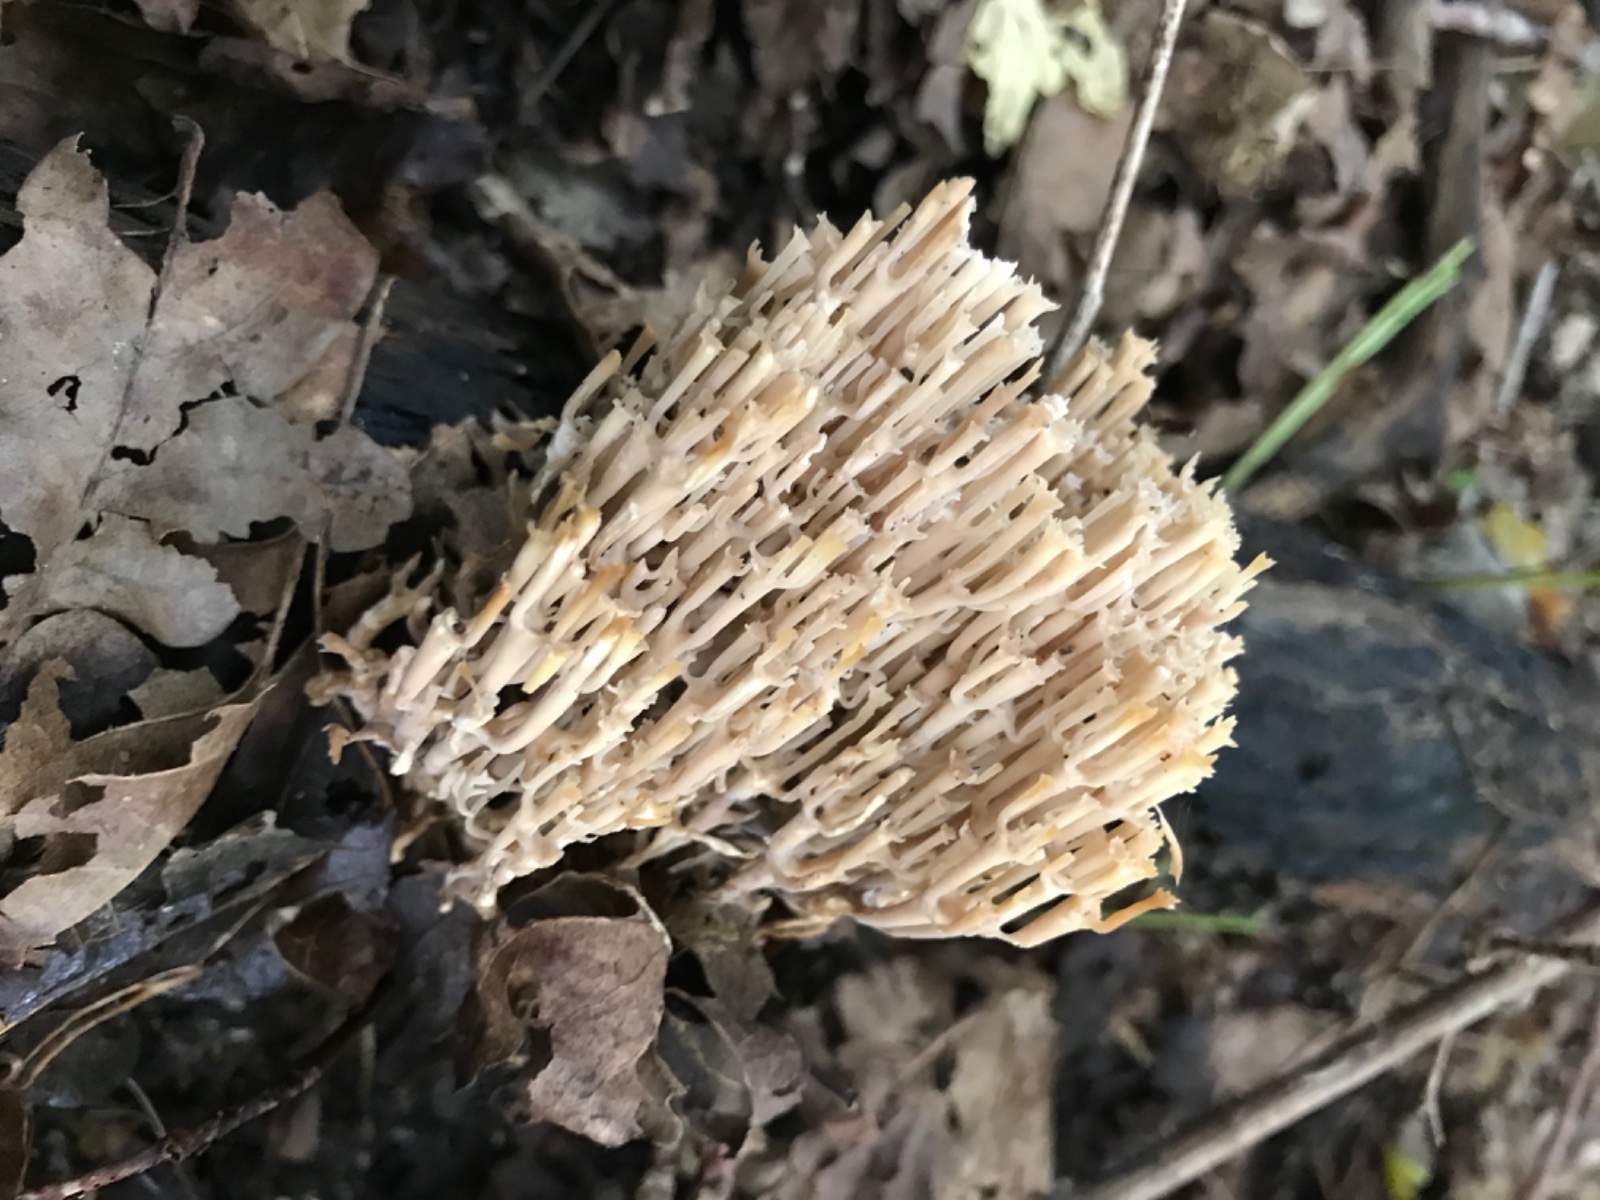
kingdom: Fungi
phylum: Basidiomycota
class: Agaricomycetes
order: Russulales
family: Auriscalpiaceae
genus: Artomyces
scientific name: Artomyces pyxidatus
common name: kandelabersvamp
